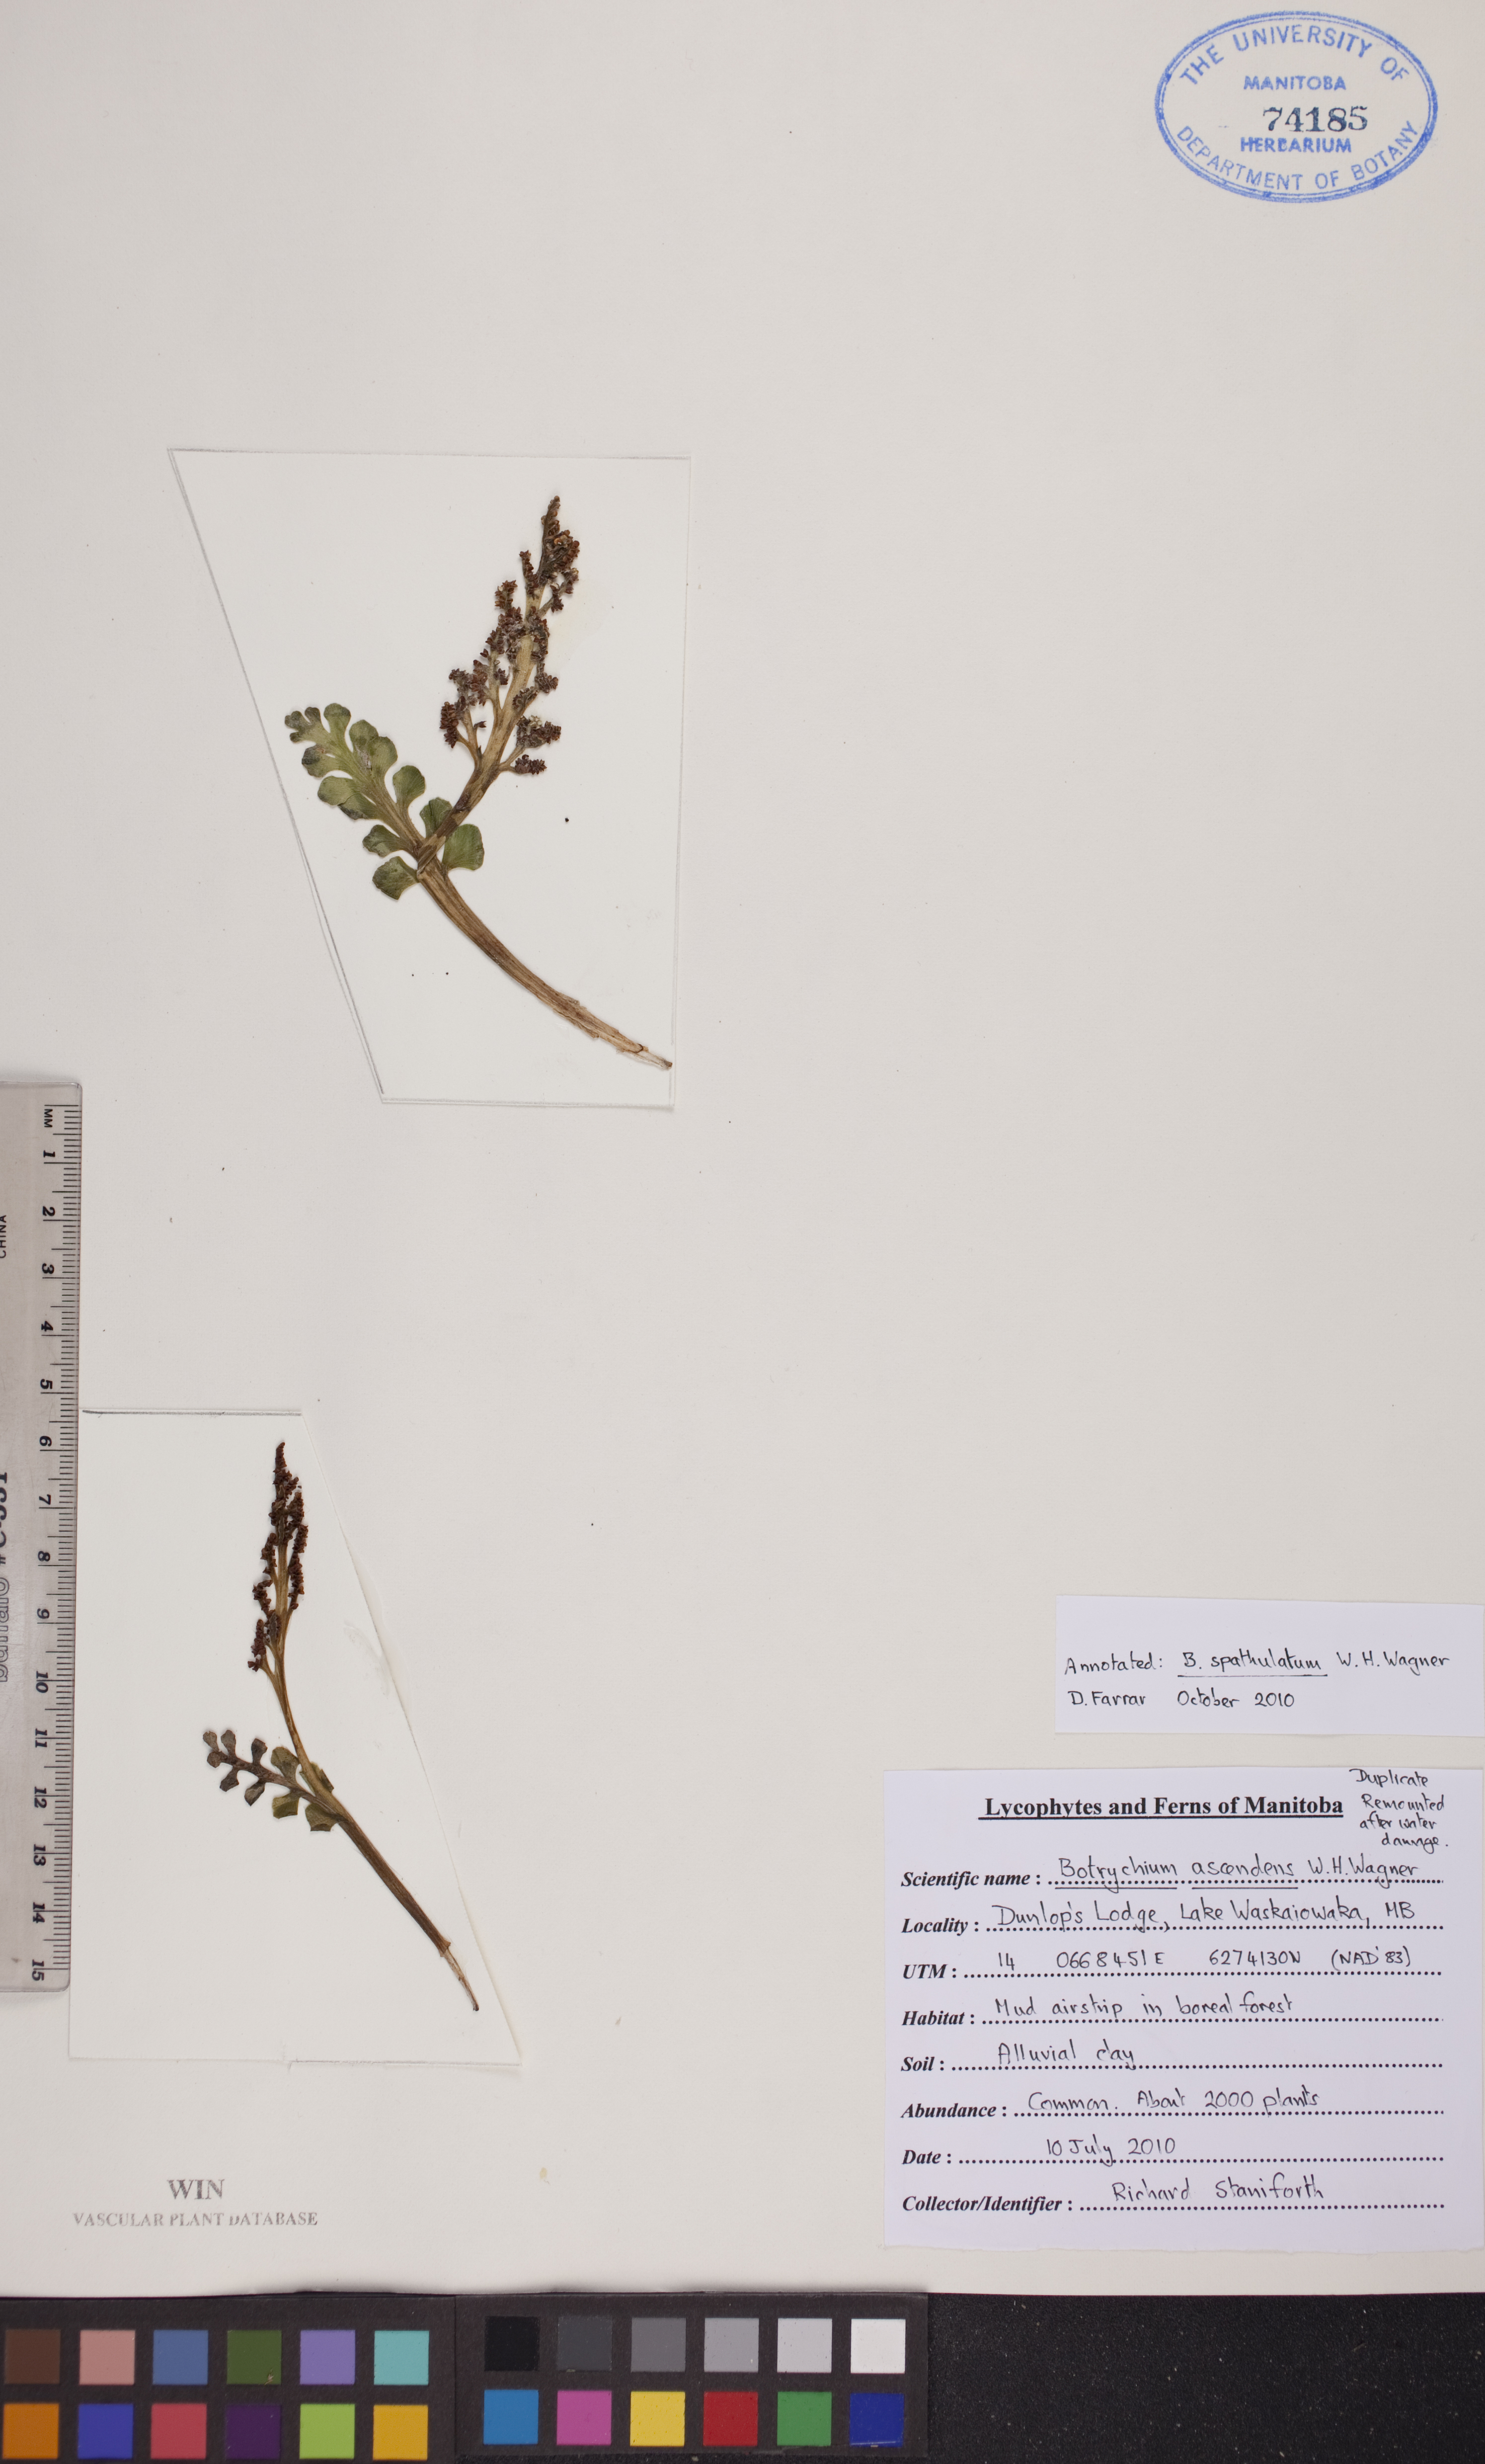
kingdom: Plantae
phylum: Tracheophyta
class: Polypodiopsida
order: Ophioglossales
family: Ophioglossaceae
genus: Botrychium
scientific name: Botrychium spathulatum
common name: Spatulate moonwort
